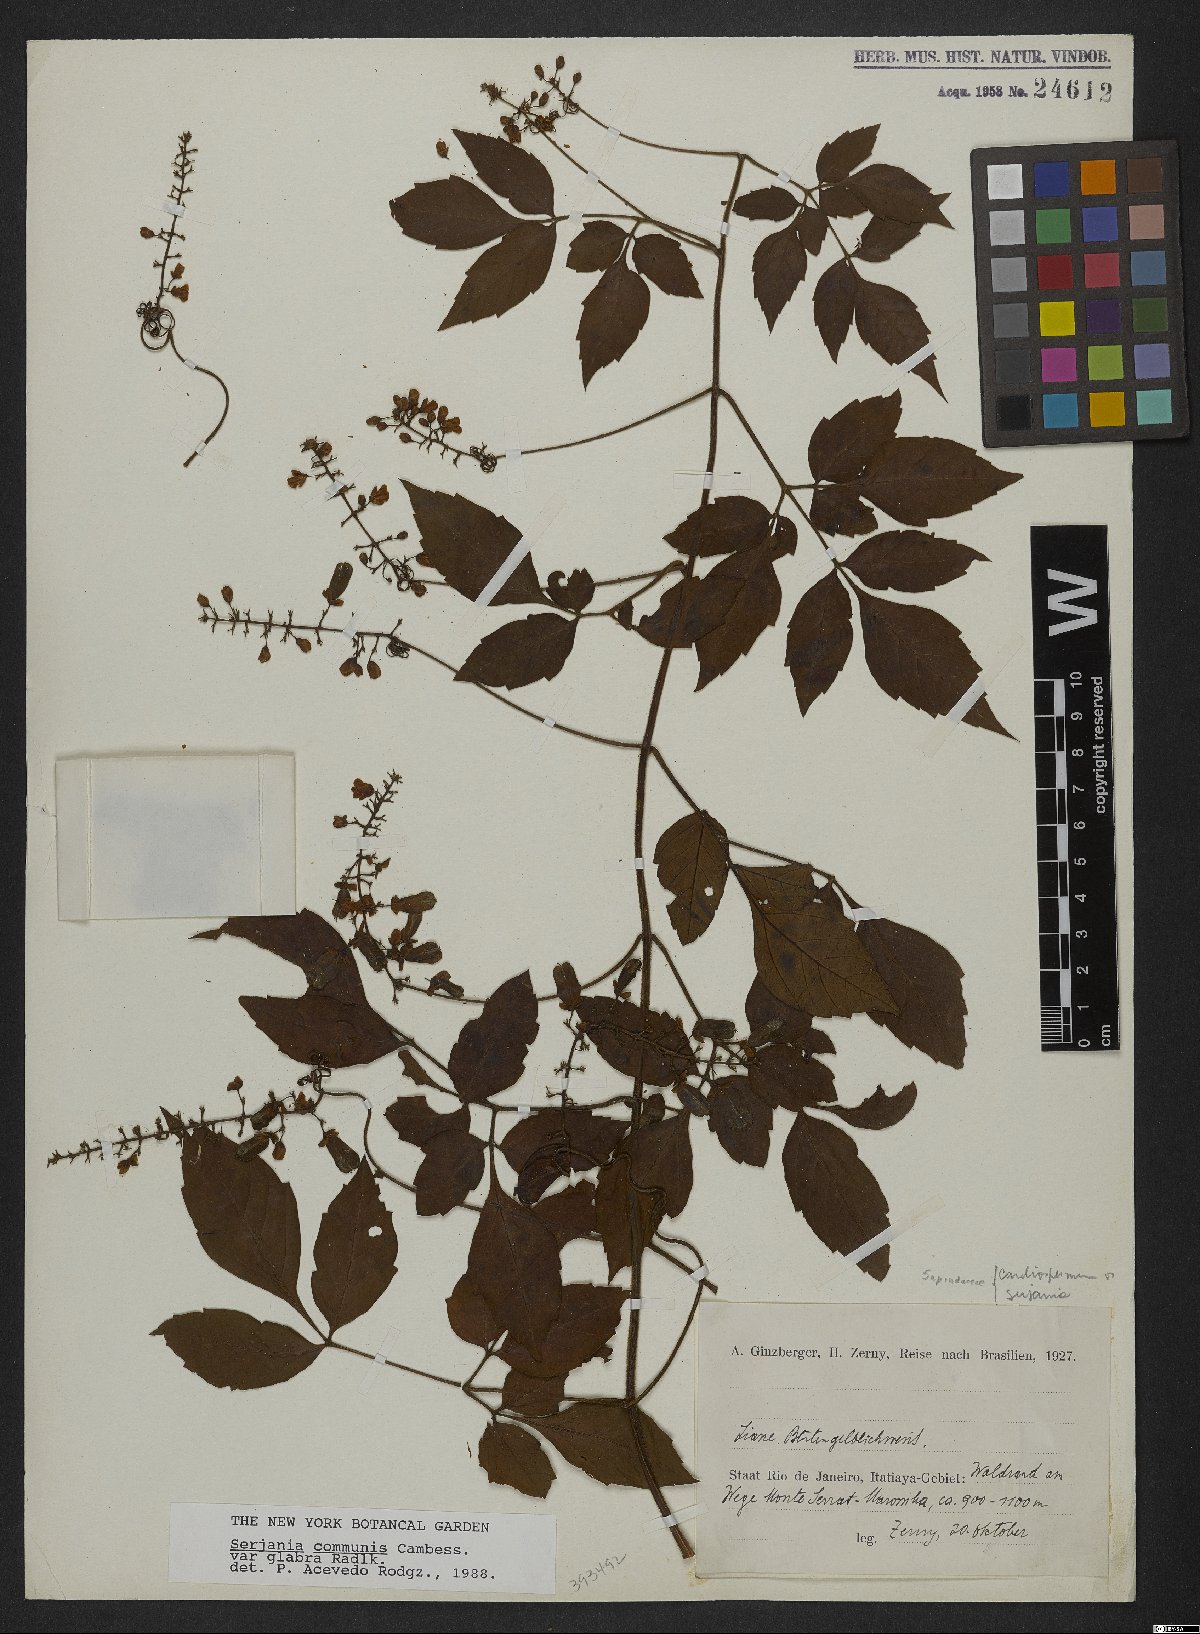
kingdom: Plantae
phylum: Tracheophyta
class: Magnoliopsida
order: Sapindales
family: Sapindaceae
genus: Serjania
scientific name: Serjania communis
